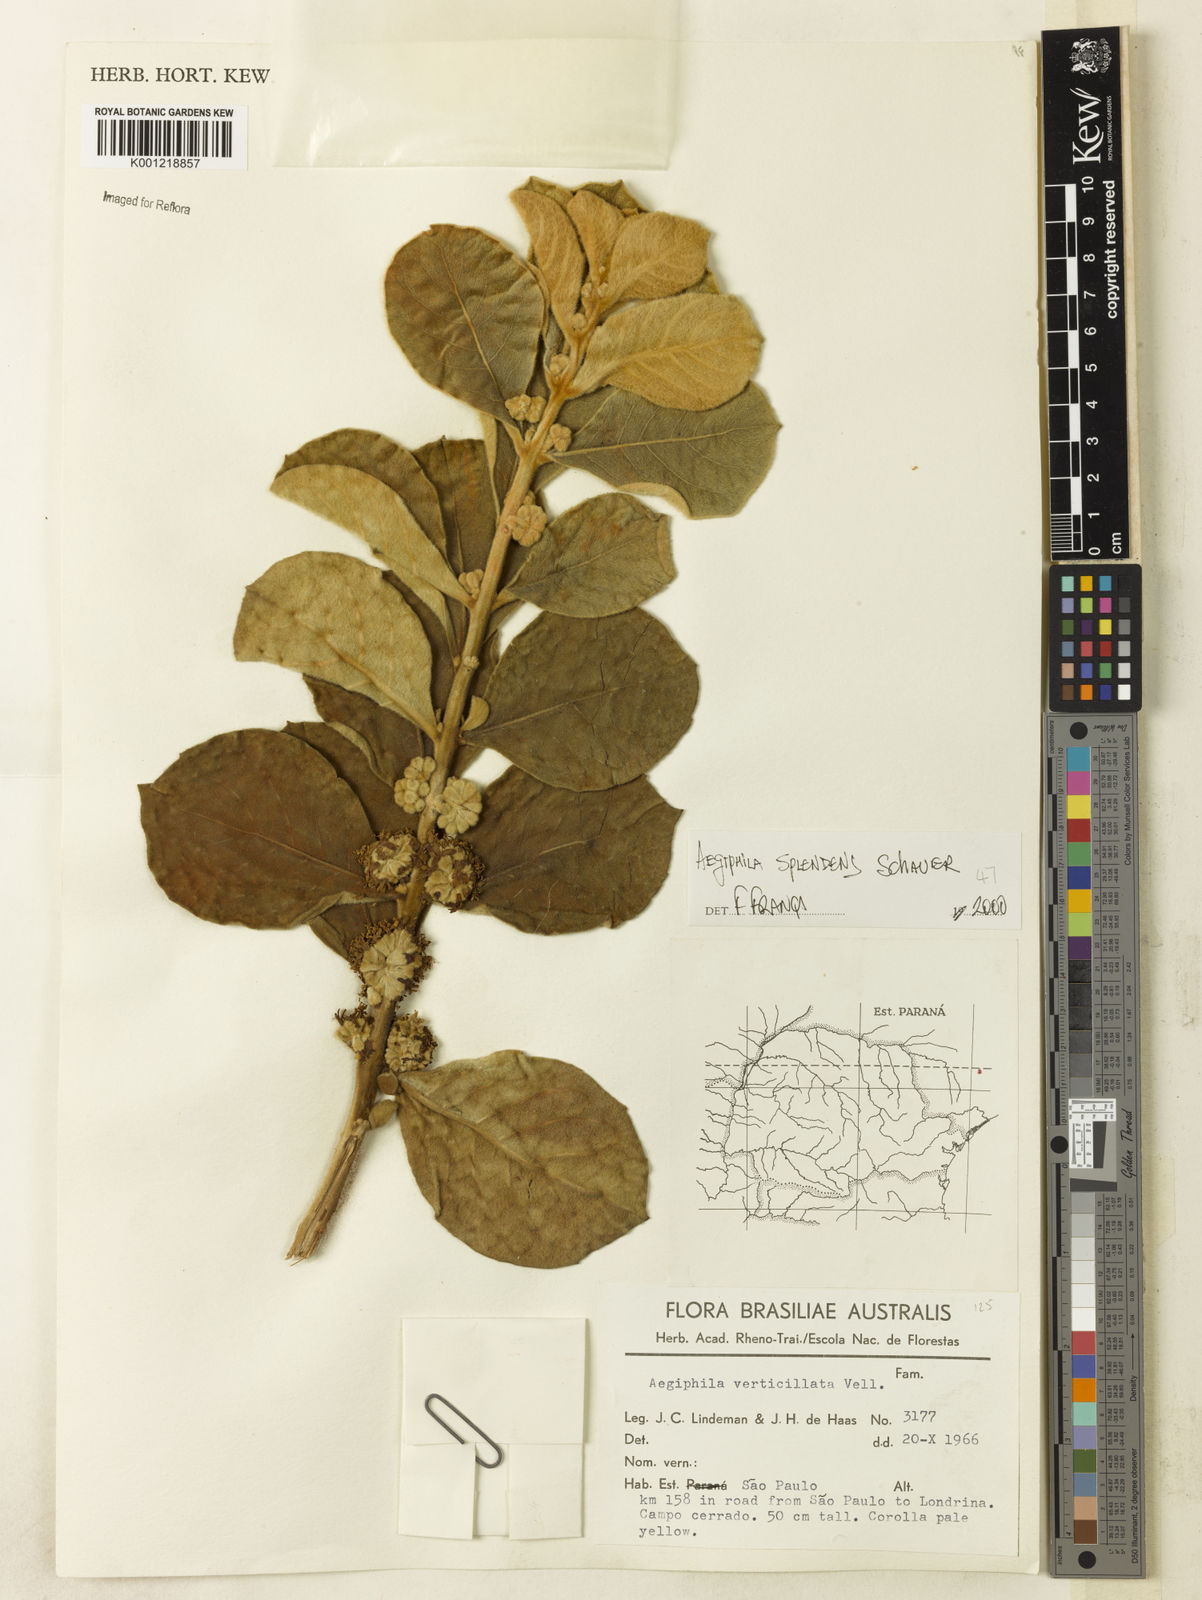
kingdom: Plantae
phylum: Tracheophyta
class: Magnoliopsida
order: Lamiales
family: Lamiaceae
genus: Aegiphila
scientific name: Aegiphila verticillata
